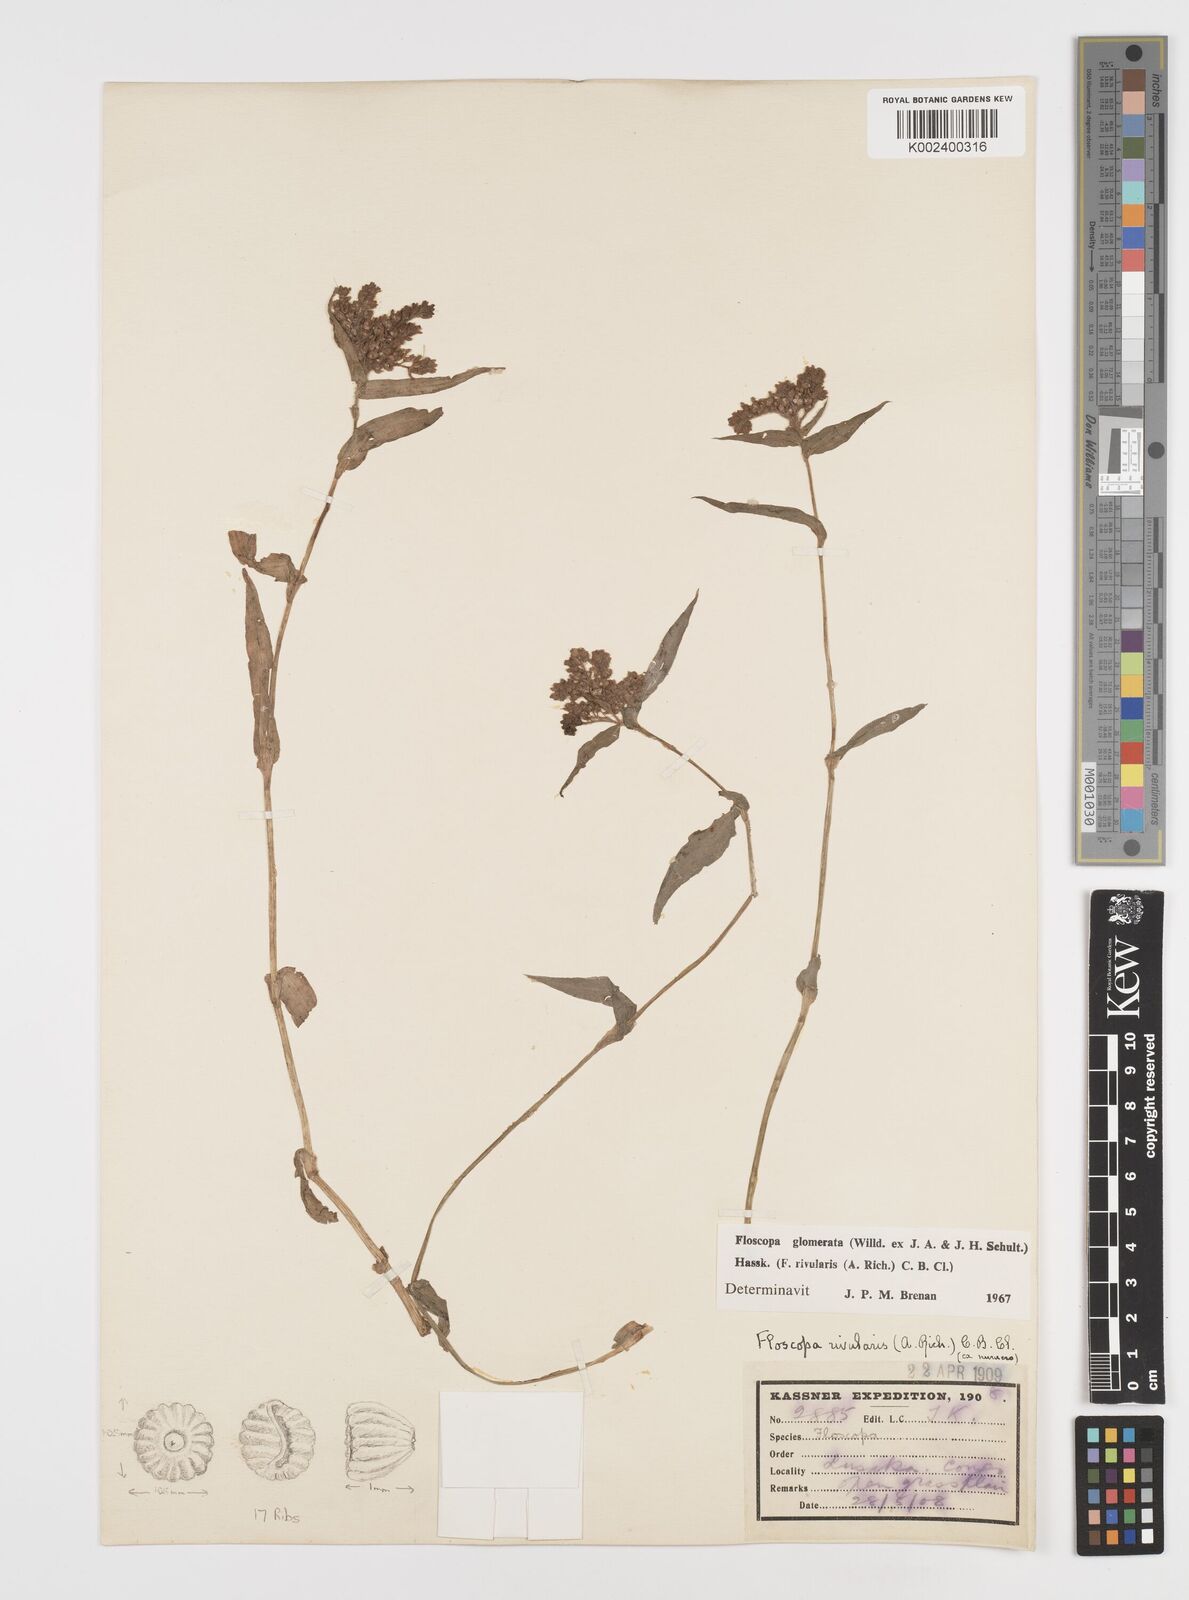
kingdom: Plantae
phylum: Tracheophyta
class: Liliopsida
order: Commelinales
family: Commelinaceae
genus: Floscopa
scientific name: Floscopa glomerata
